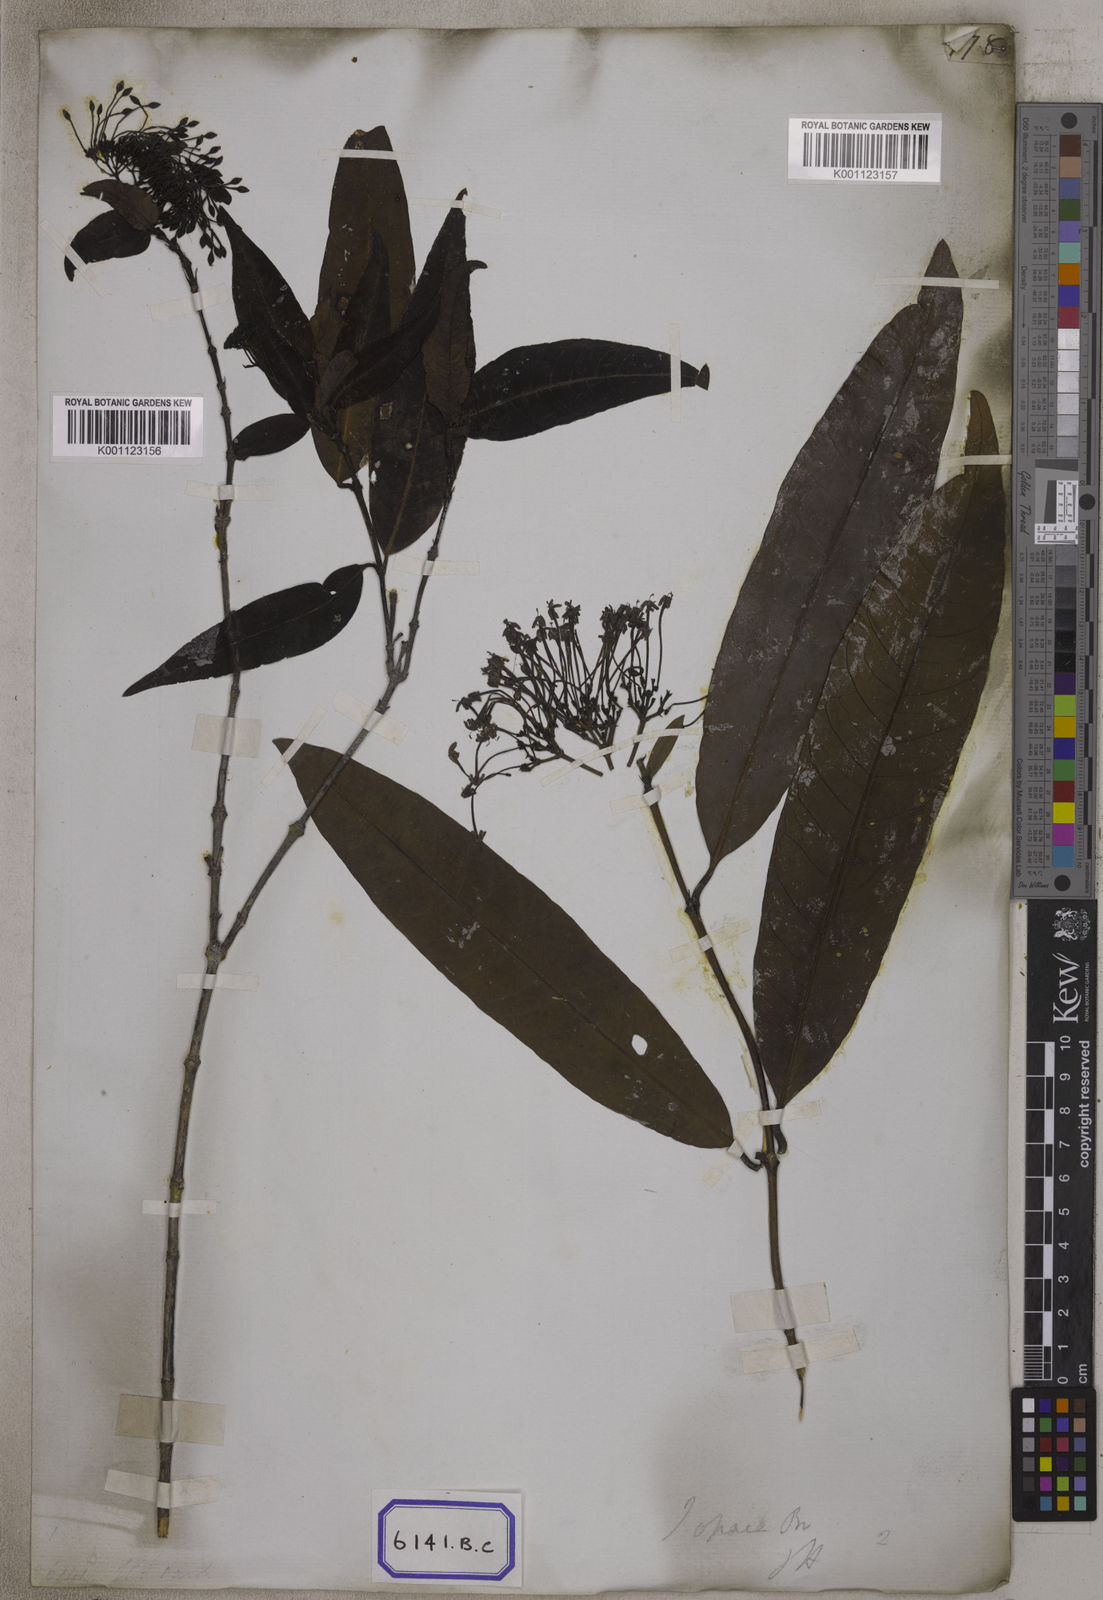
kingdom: Plantae
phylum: Tracheophyta
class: Magnoliopsida
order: Gentianales
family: Rubiaceae
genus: Ixora
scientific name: Ixora
